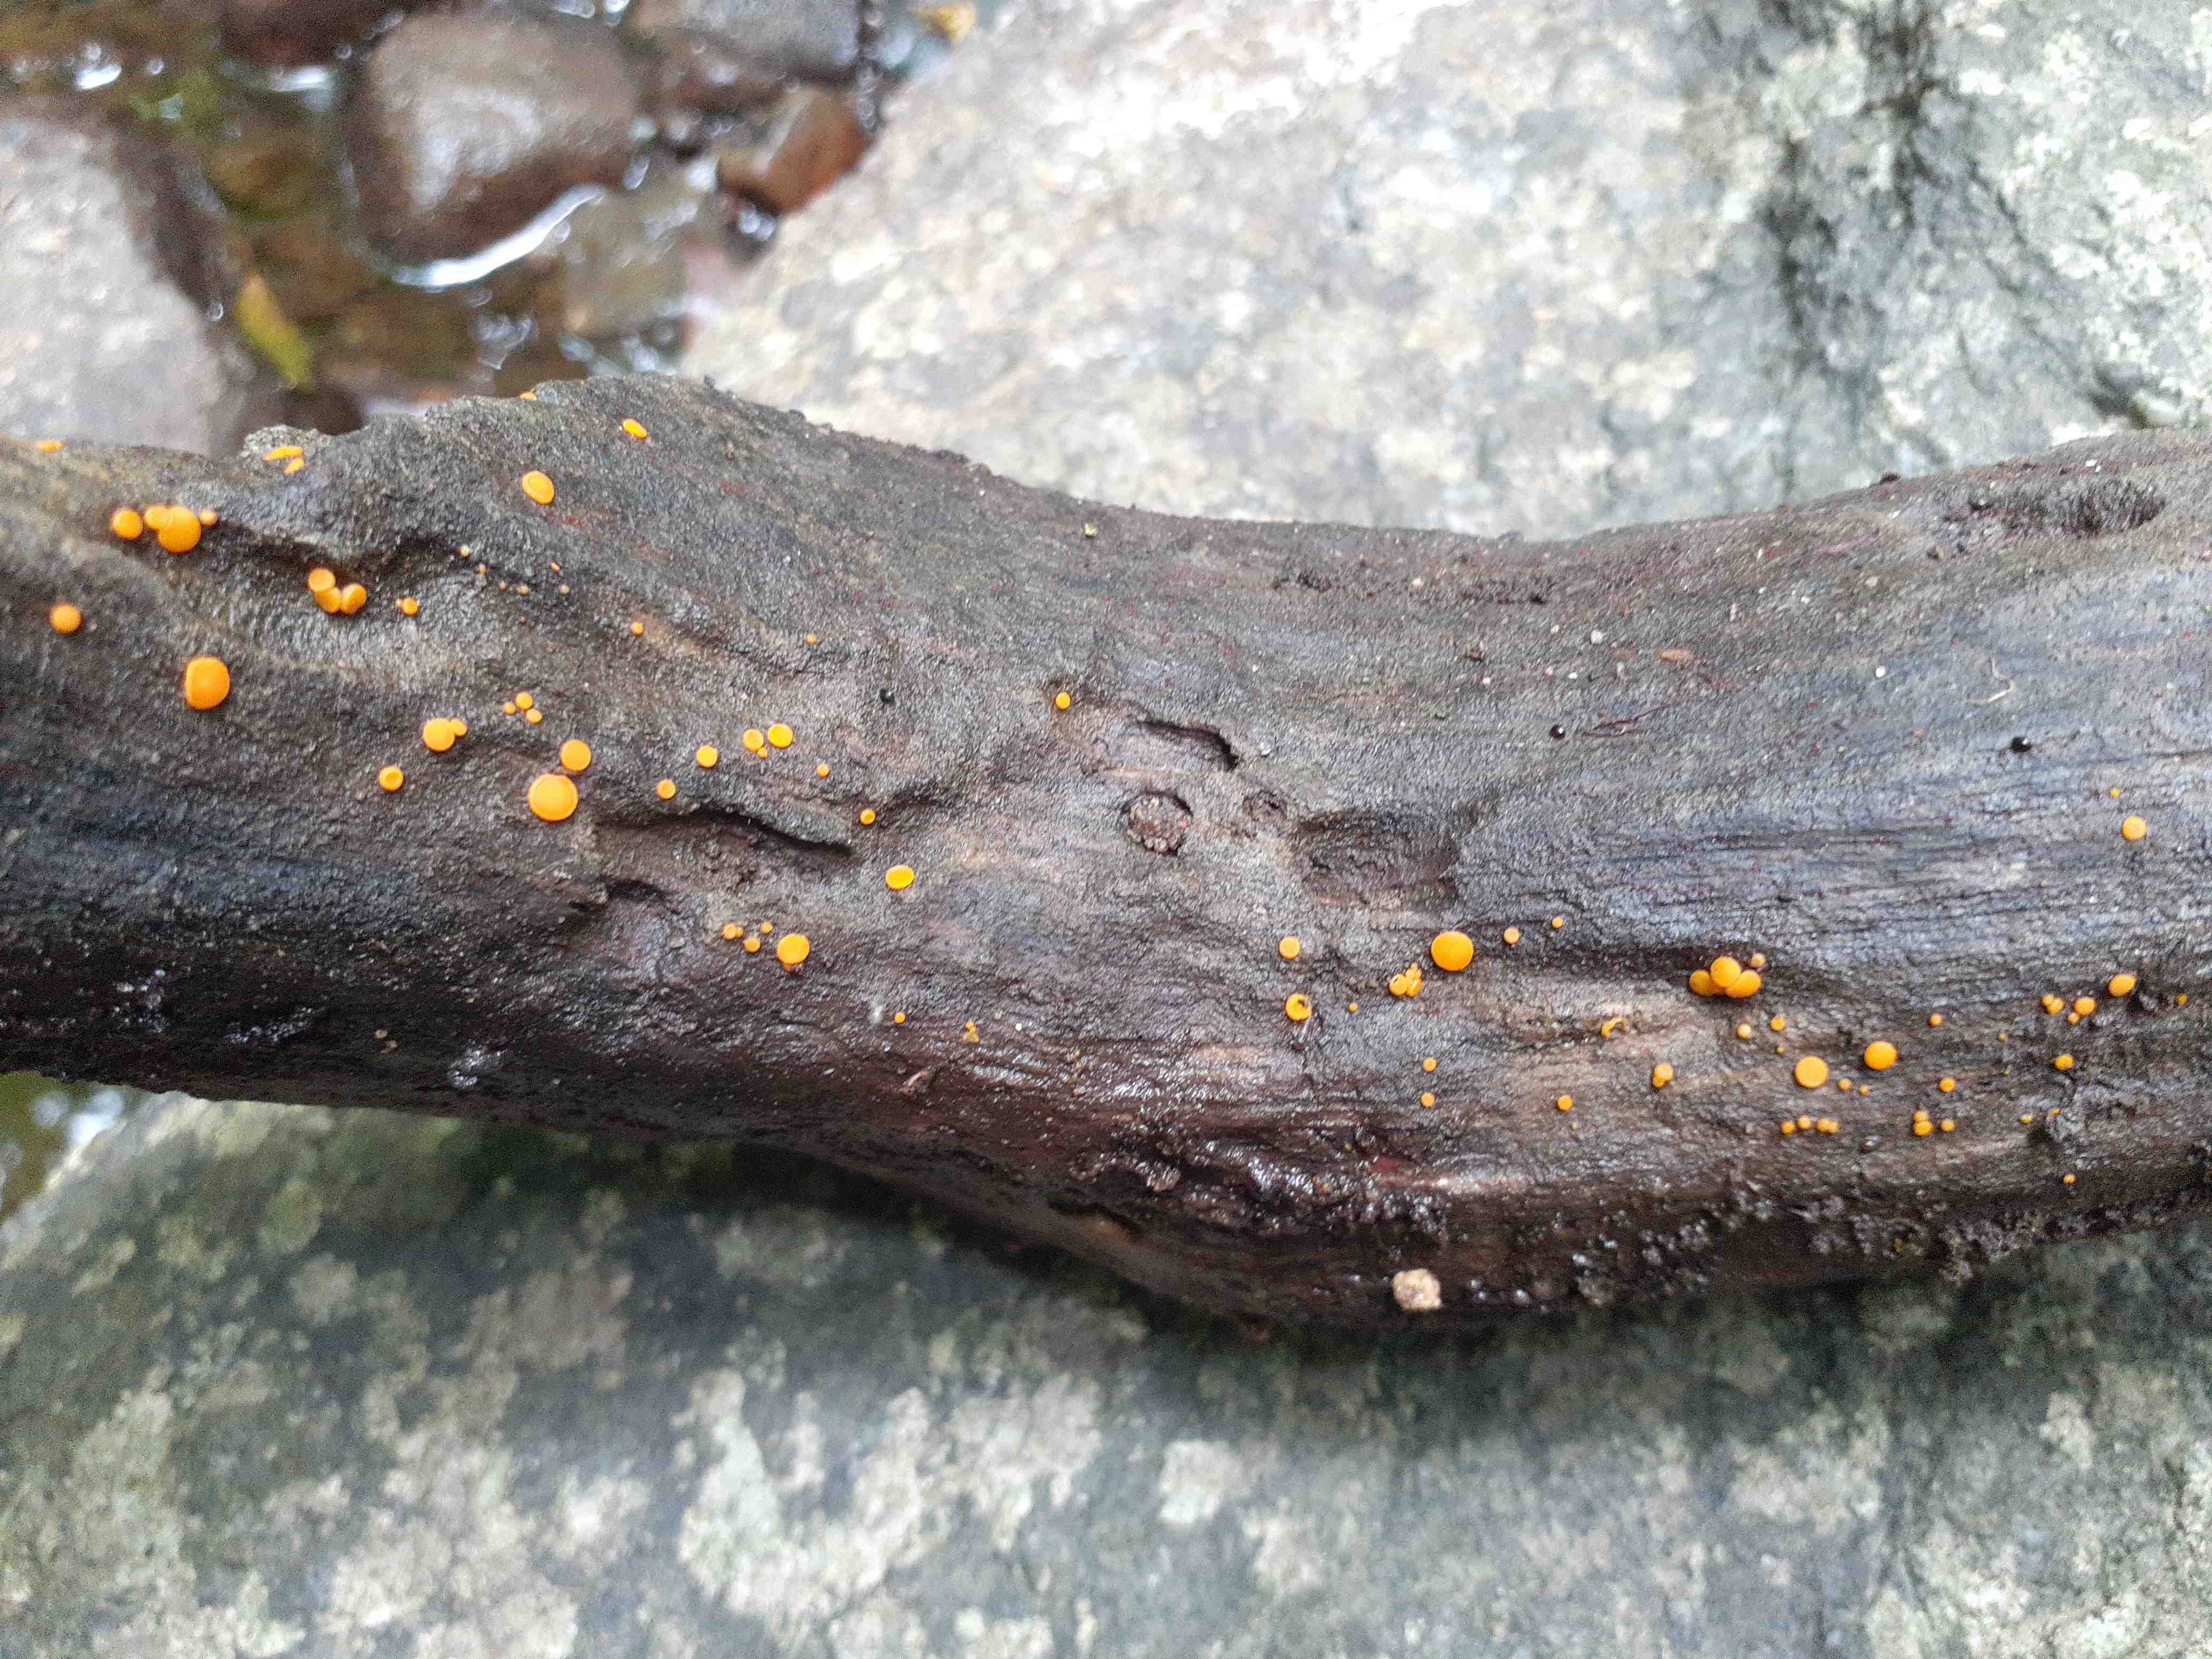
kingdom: Fungi
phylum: Ascomycota
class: Pezizomycetes
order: Pezizales
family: Pyronemataceae
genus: Miladina
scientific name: Miladina lecithina
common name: vandbæger
